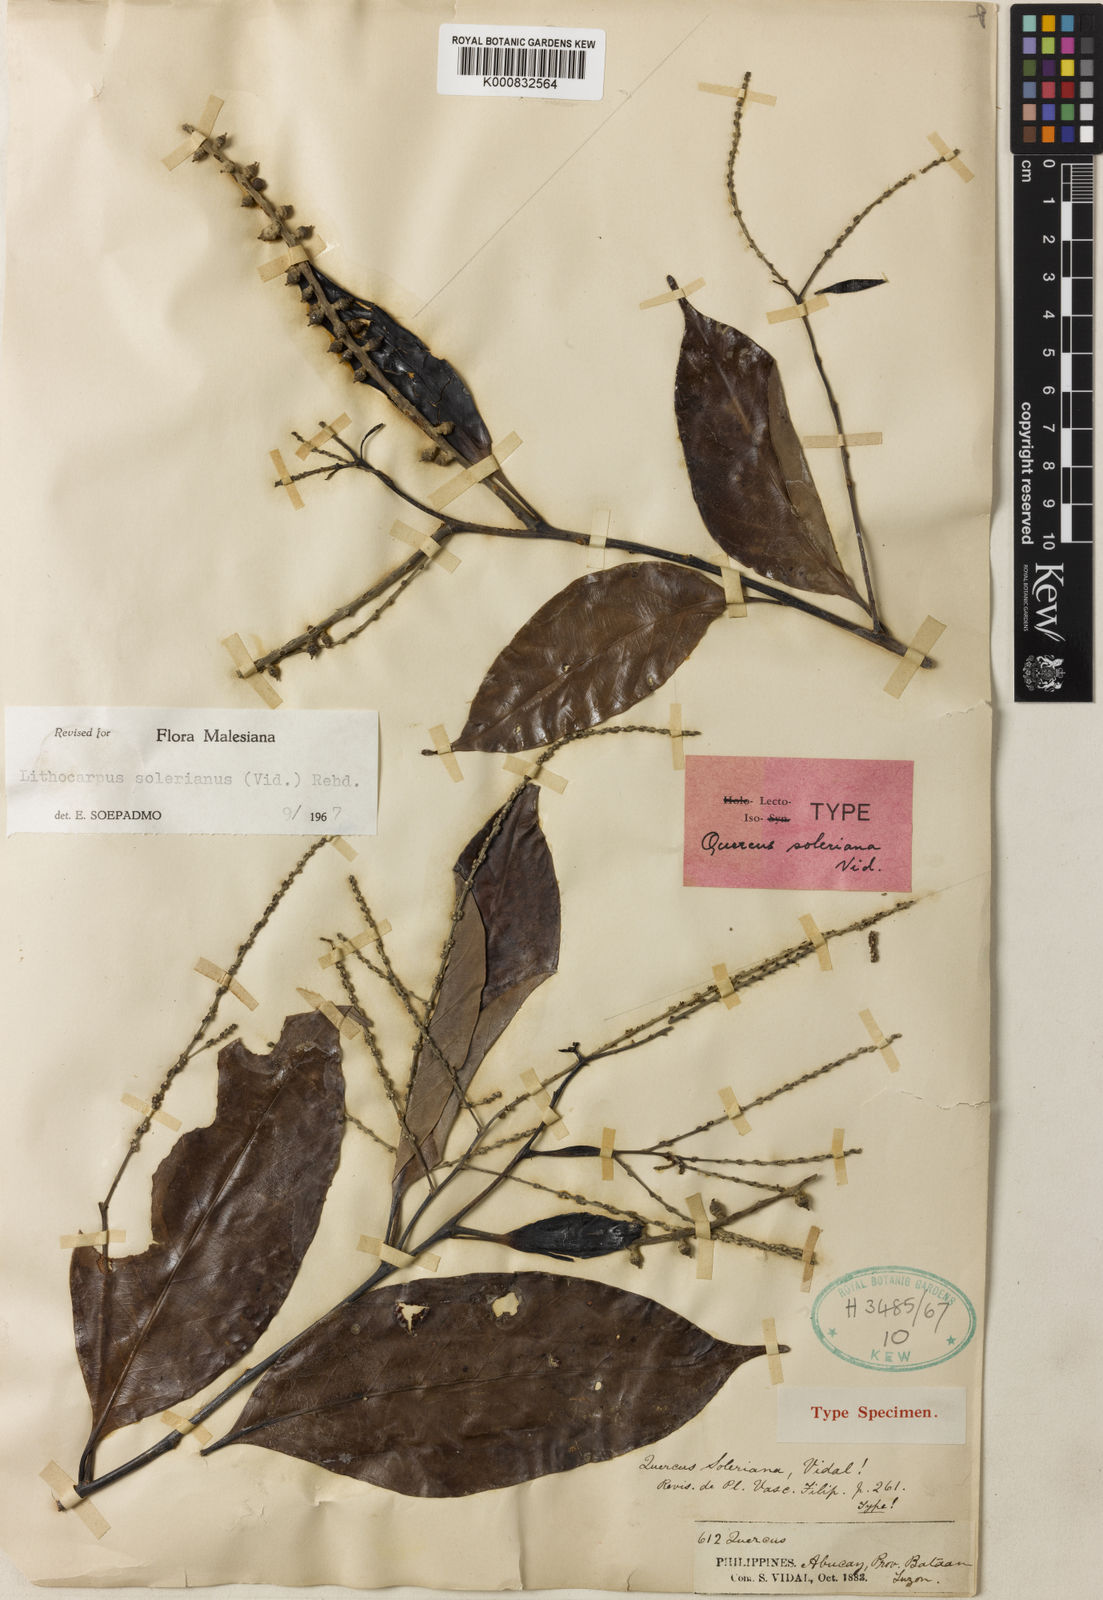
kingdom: Plantae
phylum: Tracheophyta
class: Magnoliopsida
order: Fagales
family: Fagaceae
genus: Lithocarpus
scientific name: Lithocarpus solerianus
